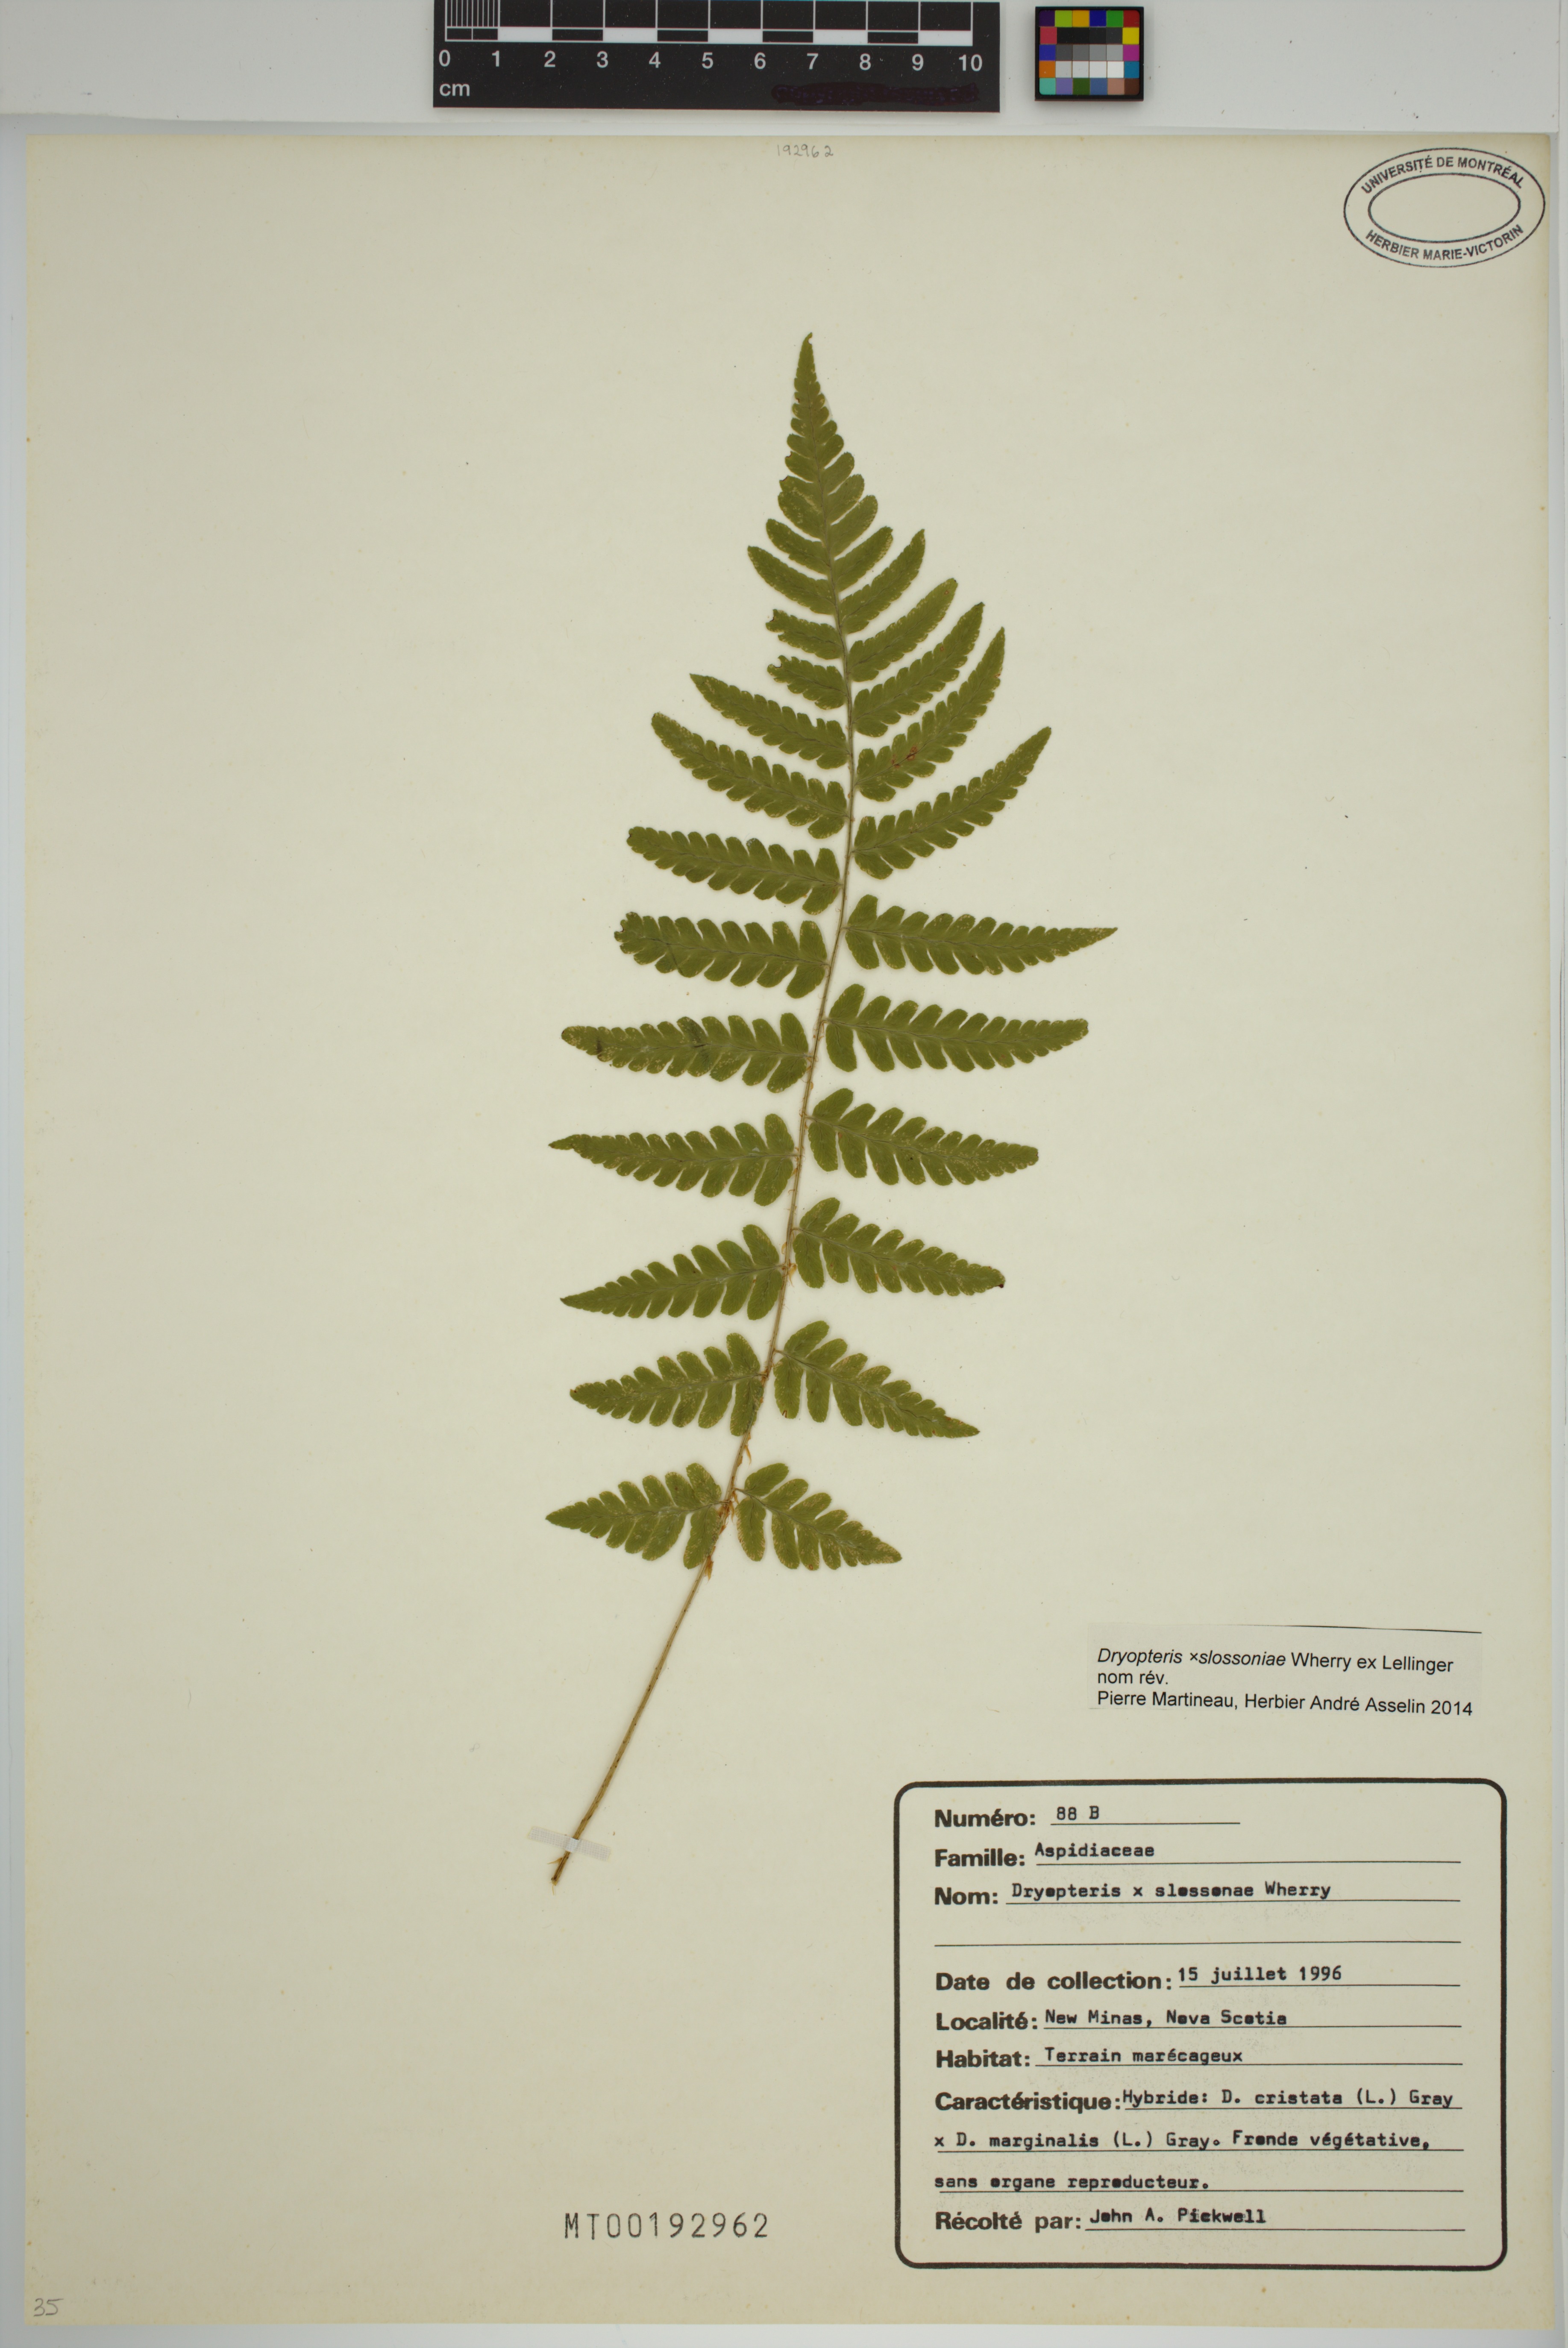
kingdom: Plantae
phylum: Tracheophyta
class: Polypodiopsida
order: Polypodiales
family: Dryopteridaceae
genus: Dryopteris
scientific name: Dryopteris slossoniae
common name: Miss slosson's wood fern
